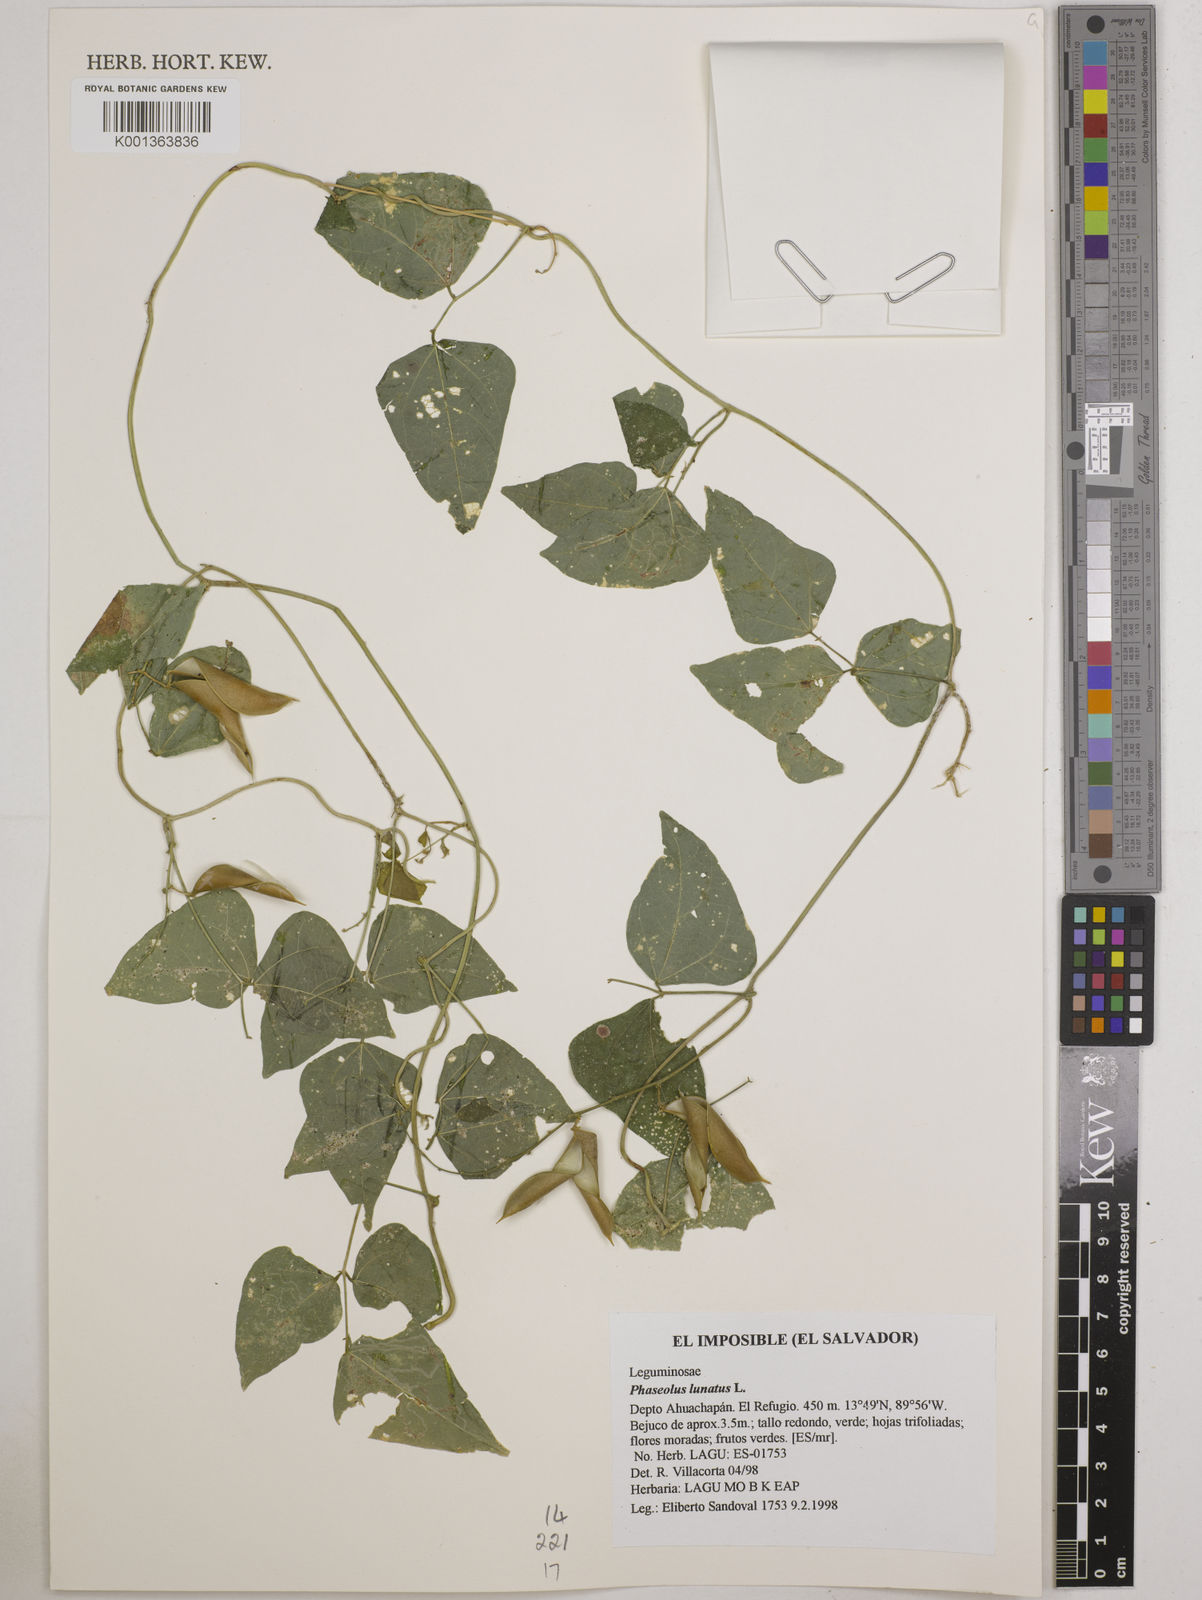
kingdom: Plantae
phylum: Tracheophyta
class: Magnoliopsida
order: Fabales
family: Fabaceae
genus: Phaseolus
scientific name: Phaseolus lunatus
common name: Sieva bean
